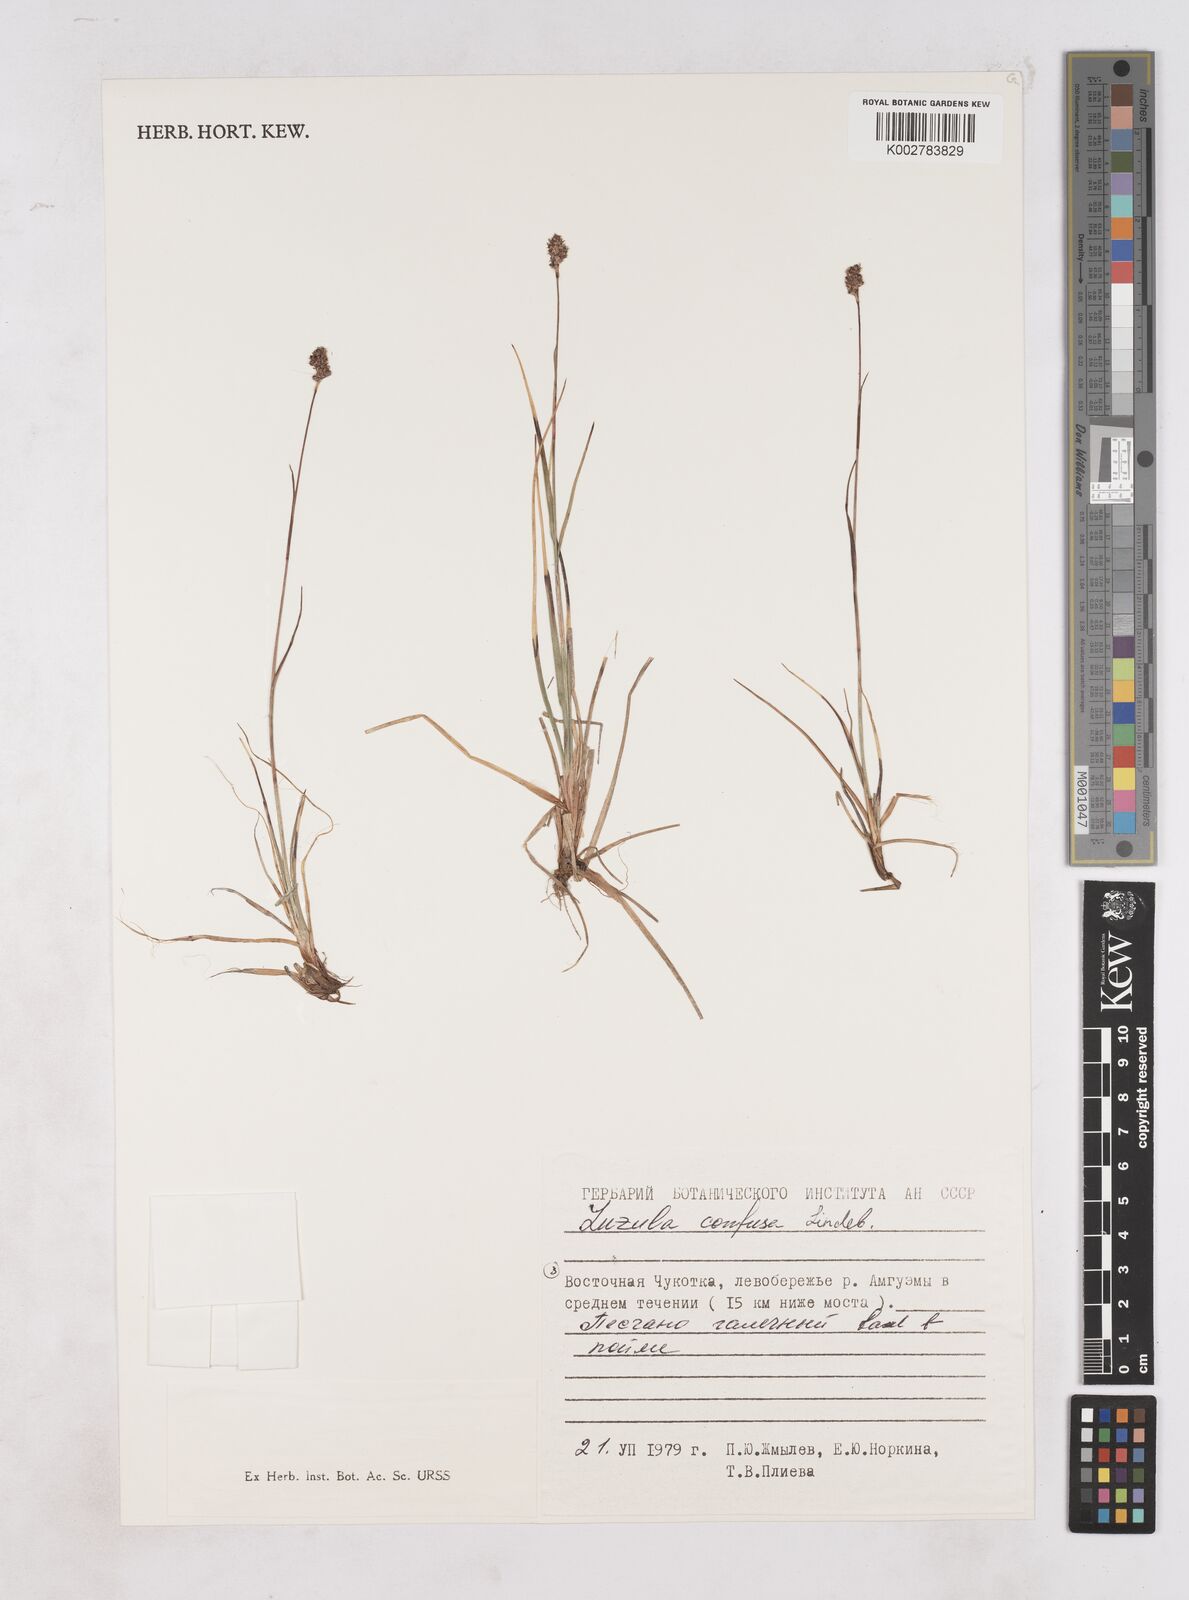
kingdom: Plantae
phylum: Tracheophyta
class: Liliopsida
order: Poales
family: Juncaceae
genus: Luzula
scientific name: Luzula confusa
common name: Northern wood rush
